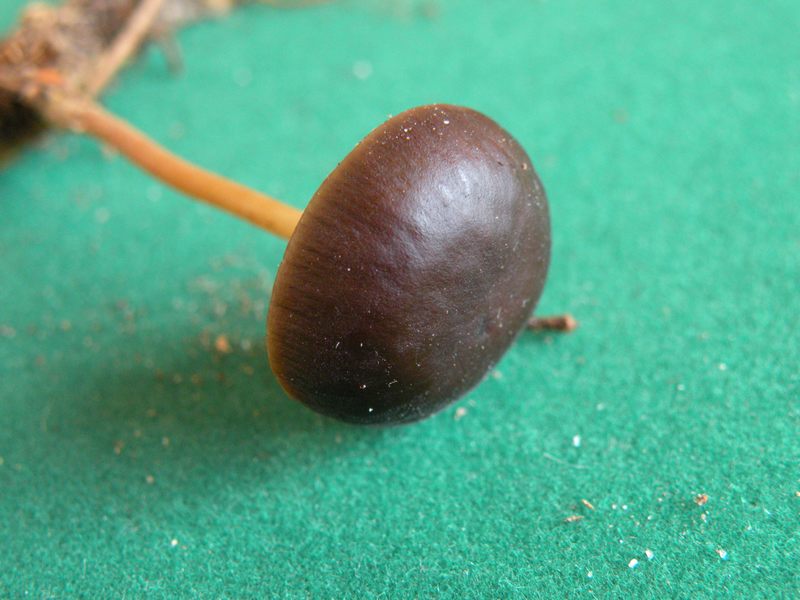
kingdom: Fungi
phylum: Basidiomycota
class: Agaricomycetes
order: Agaricales
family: Physalacriaceae
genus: Strobilurus
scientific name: Strobilurus tenacellus
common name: sommer-koglehat
